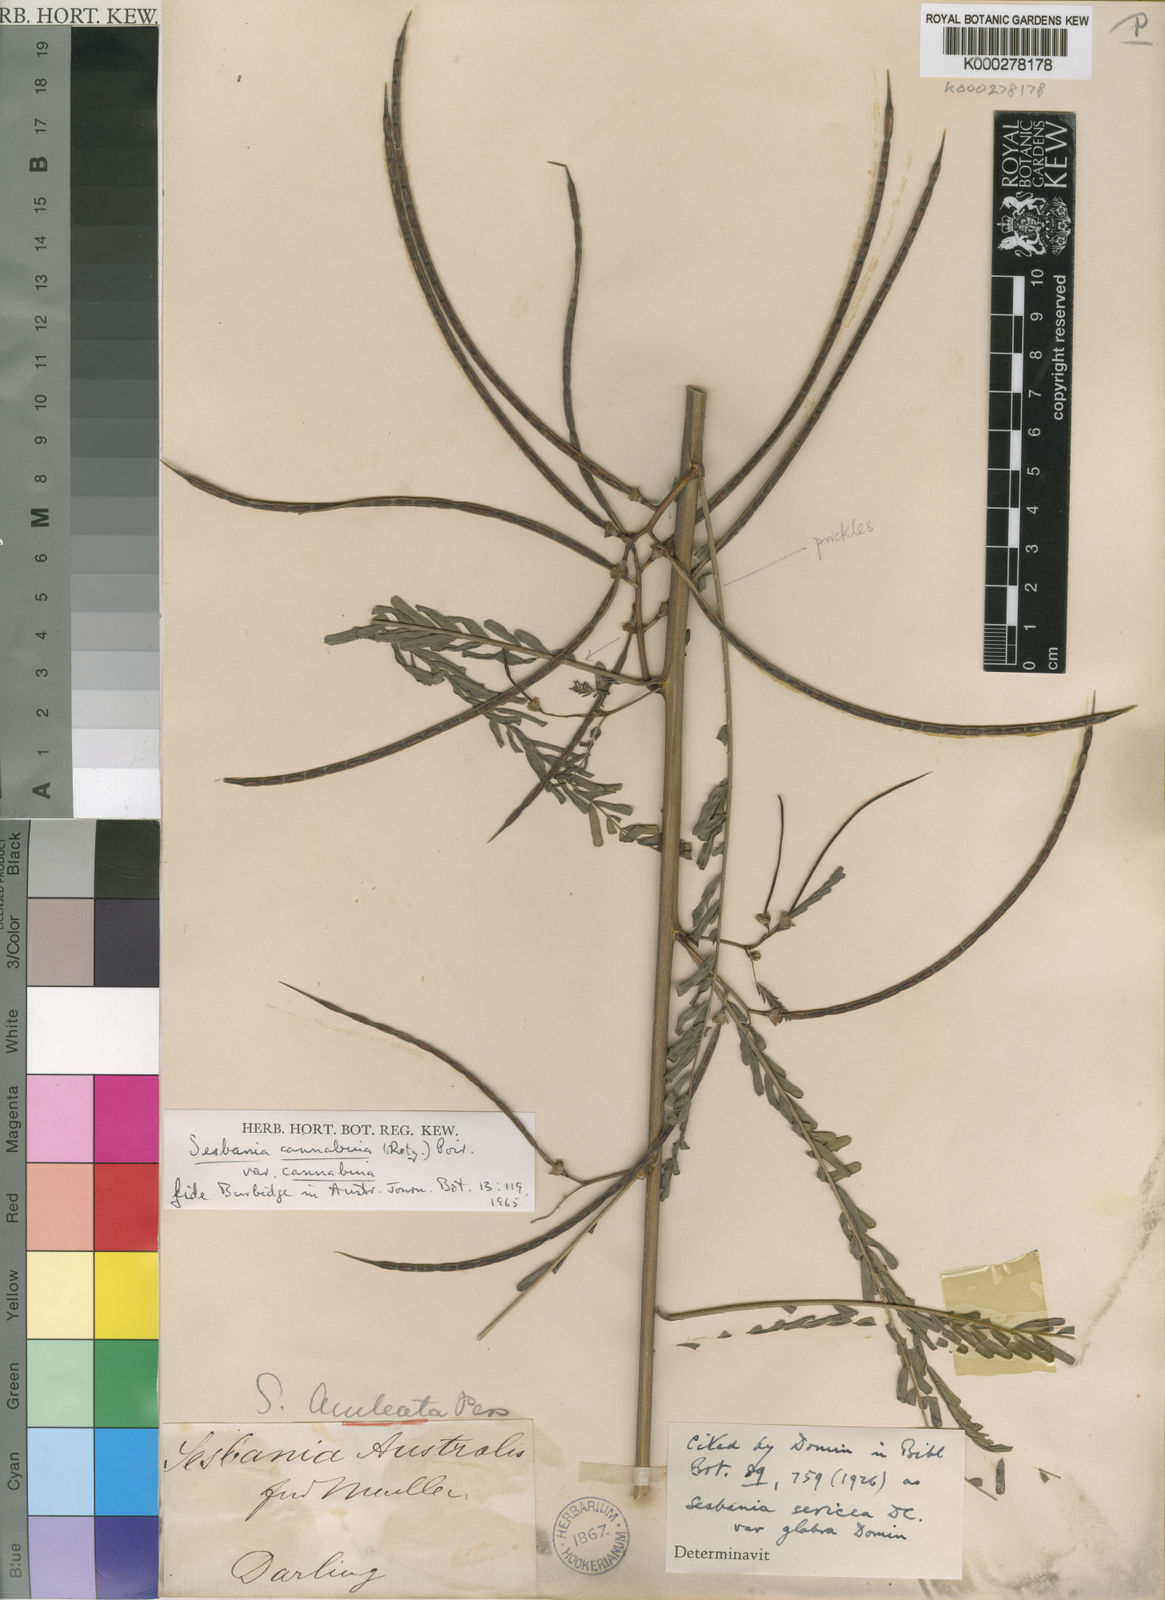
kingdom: Plantae
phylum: Tracheophyta
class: Magnoliopsida
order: Fabales
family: Fabaceae
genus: Sesbania
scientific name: Sesbania cannabina
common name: Canicha
